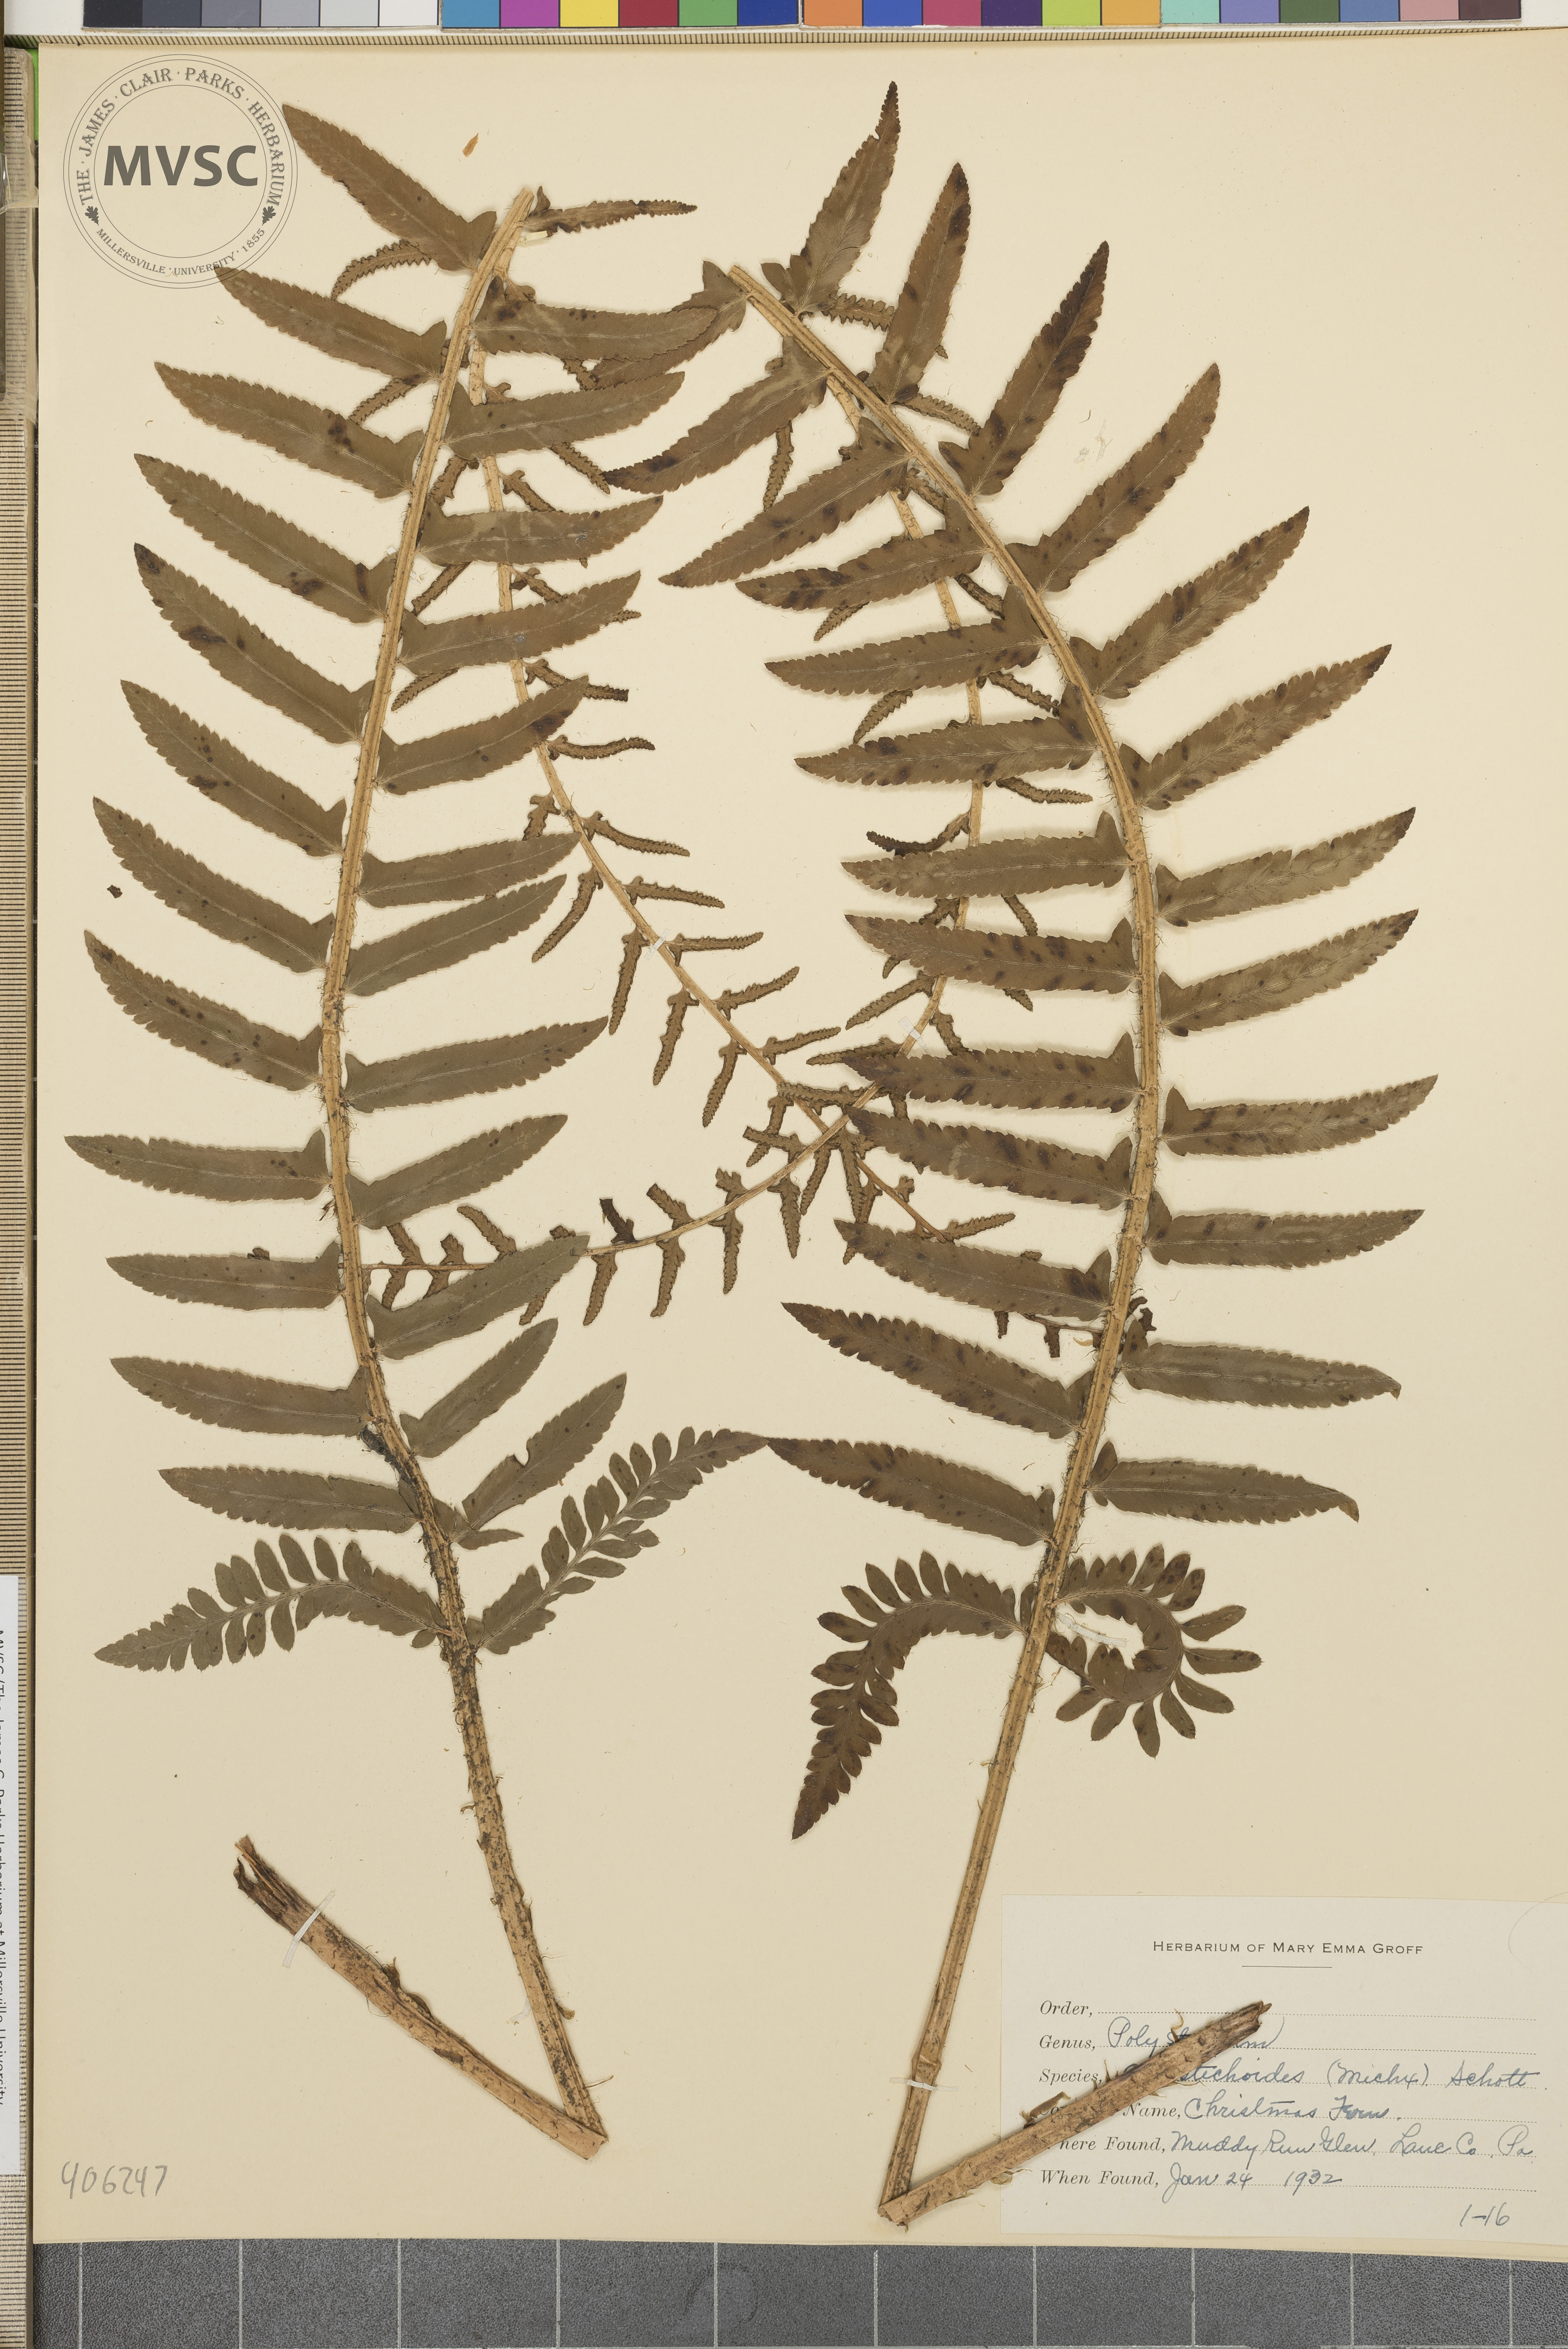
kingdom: Plantae
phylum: Tracheophyta
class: Polypodiopsida
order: Polypodiales
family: Dryopteridaceae
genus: Polystichum
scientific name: Polystichum acrostichoides
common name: Christmas fern
